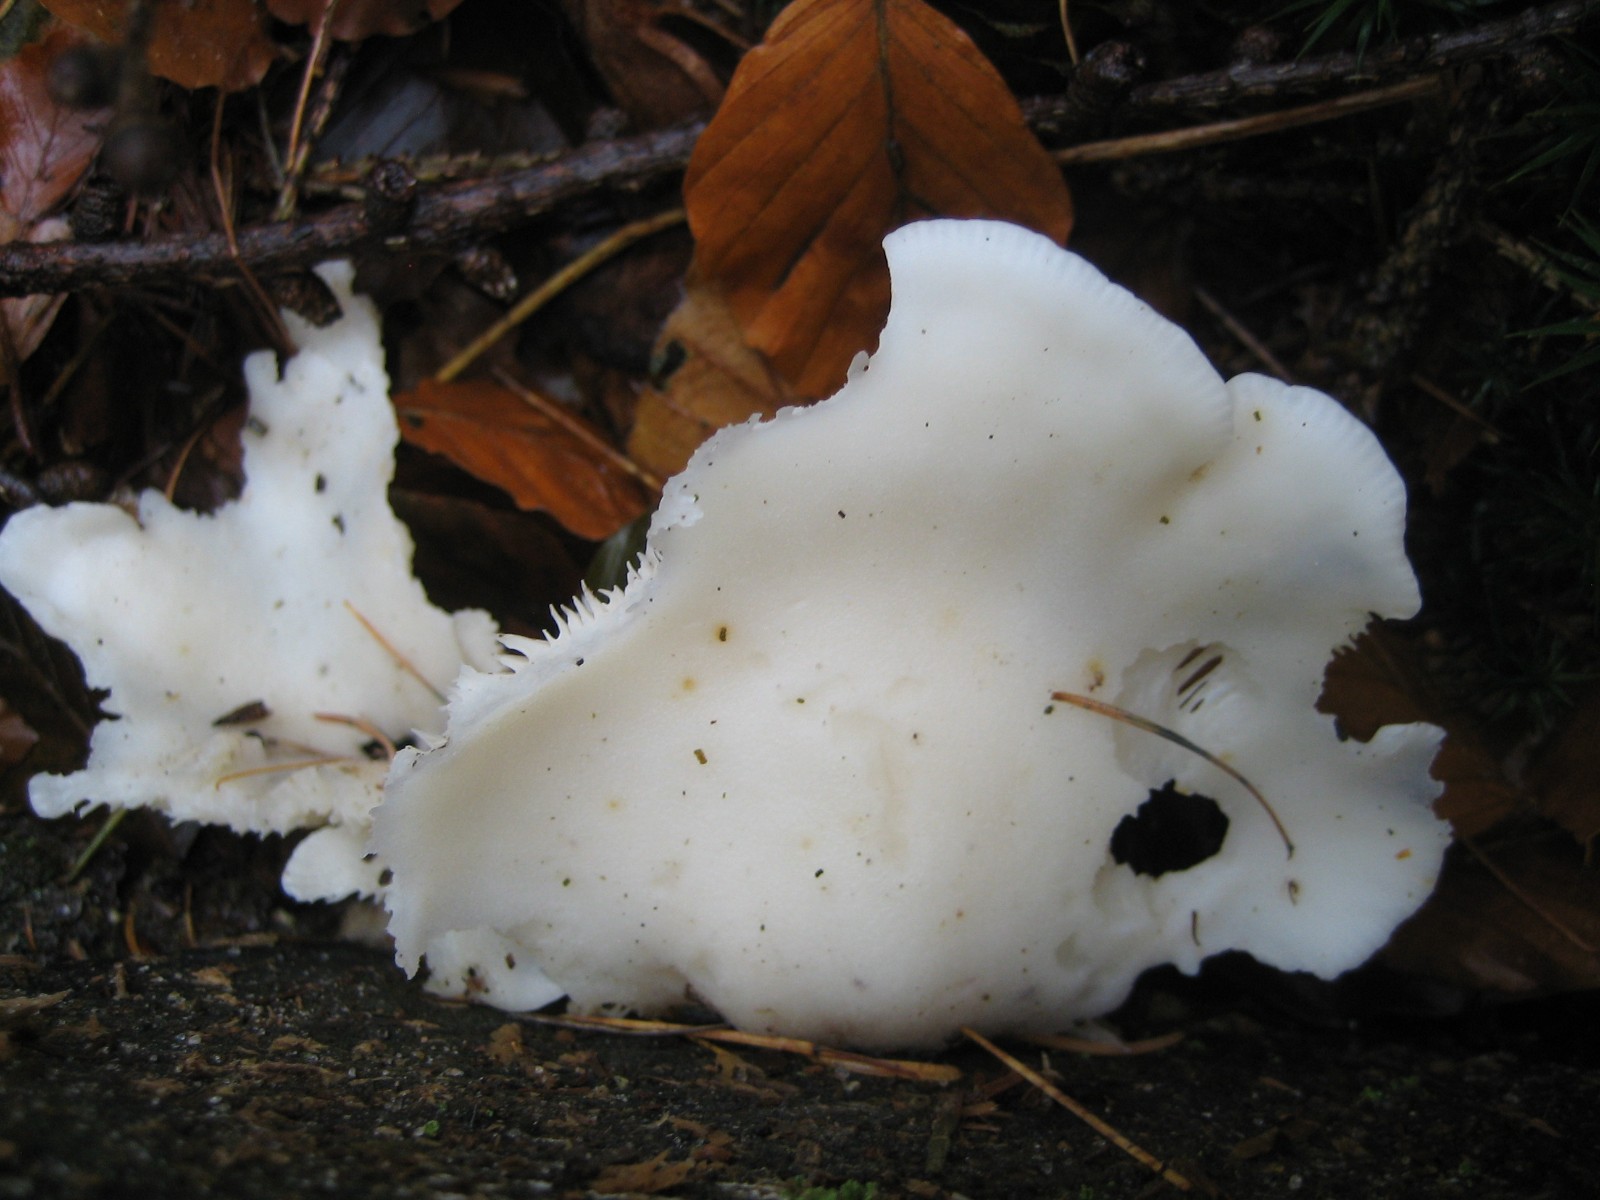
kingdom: Fungi
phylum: Basidiomycota
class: Agaricomycetes
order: Agaricales
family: Marasmiaceae
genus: Pleurocybella
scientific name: Pleurocybella porrigens
